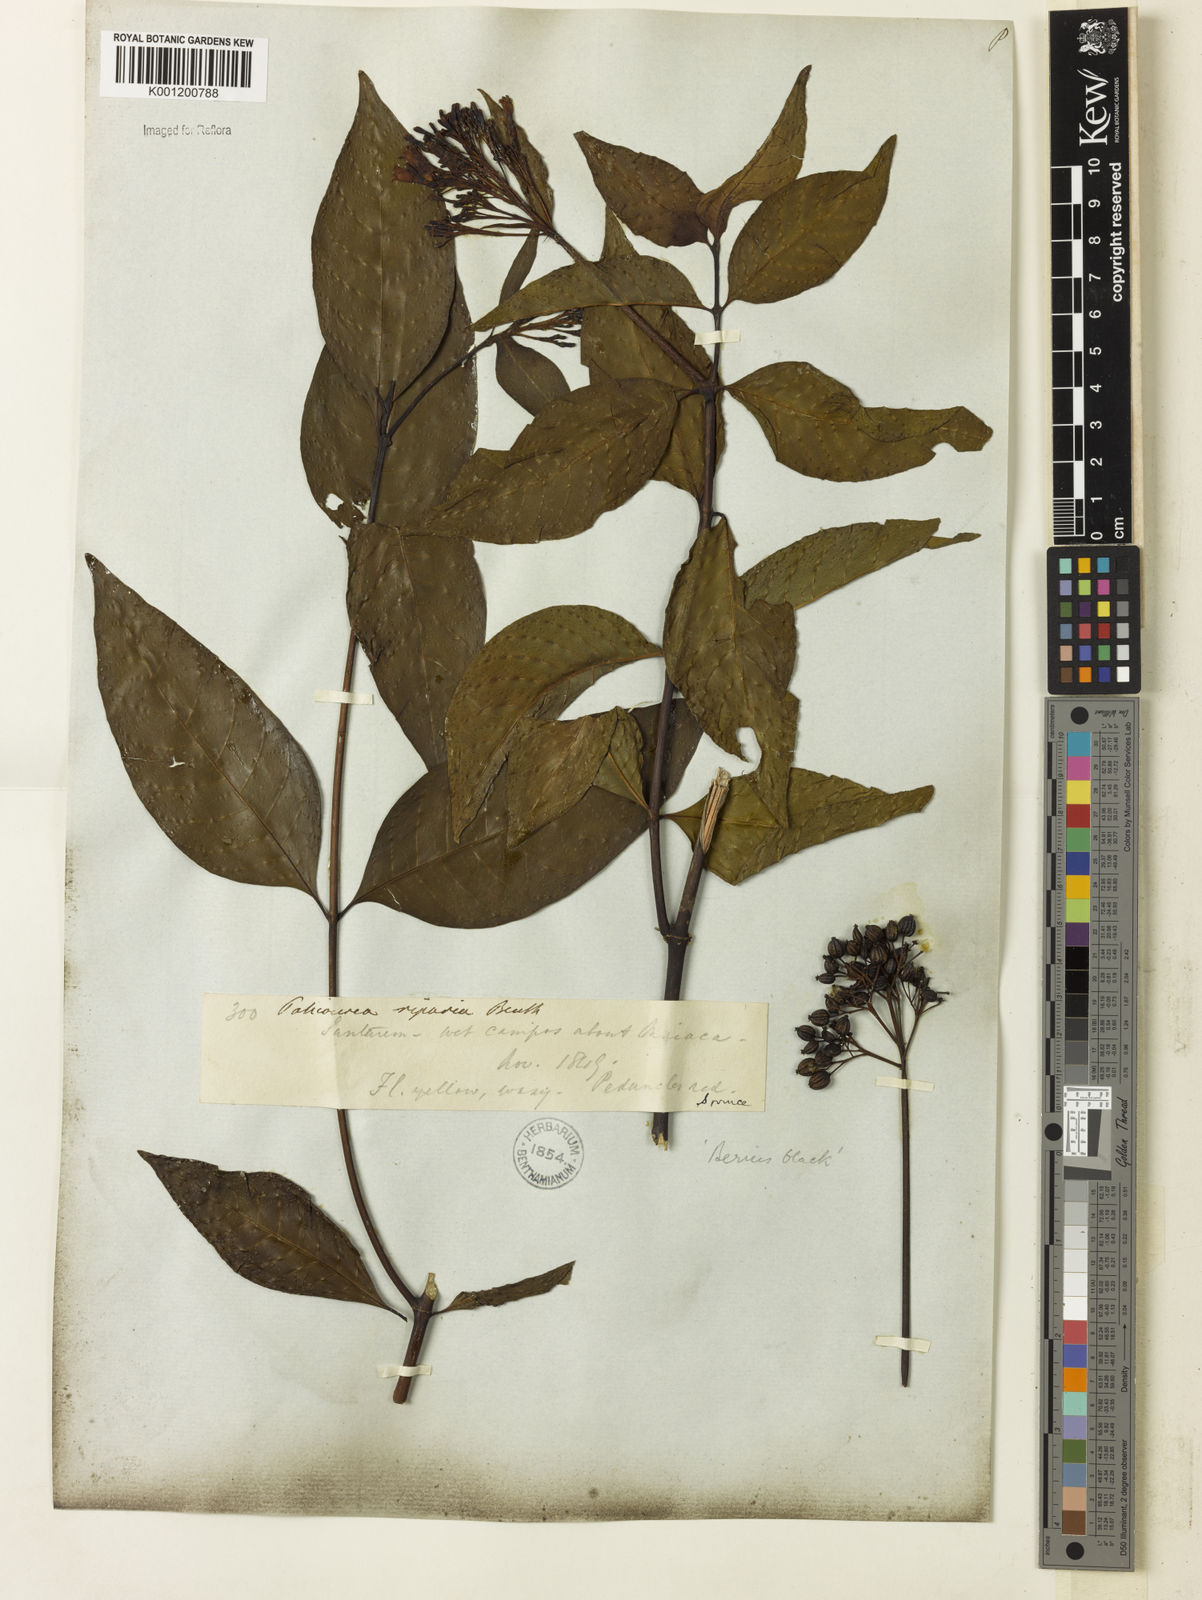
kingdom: Plantae
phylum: Tracheophyta
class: Magnoliopsida
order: Gentianales
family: Rubiaceae
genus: Palicourea
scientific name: Palicourea crocea
